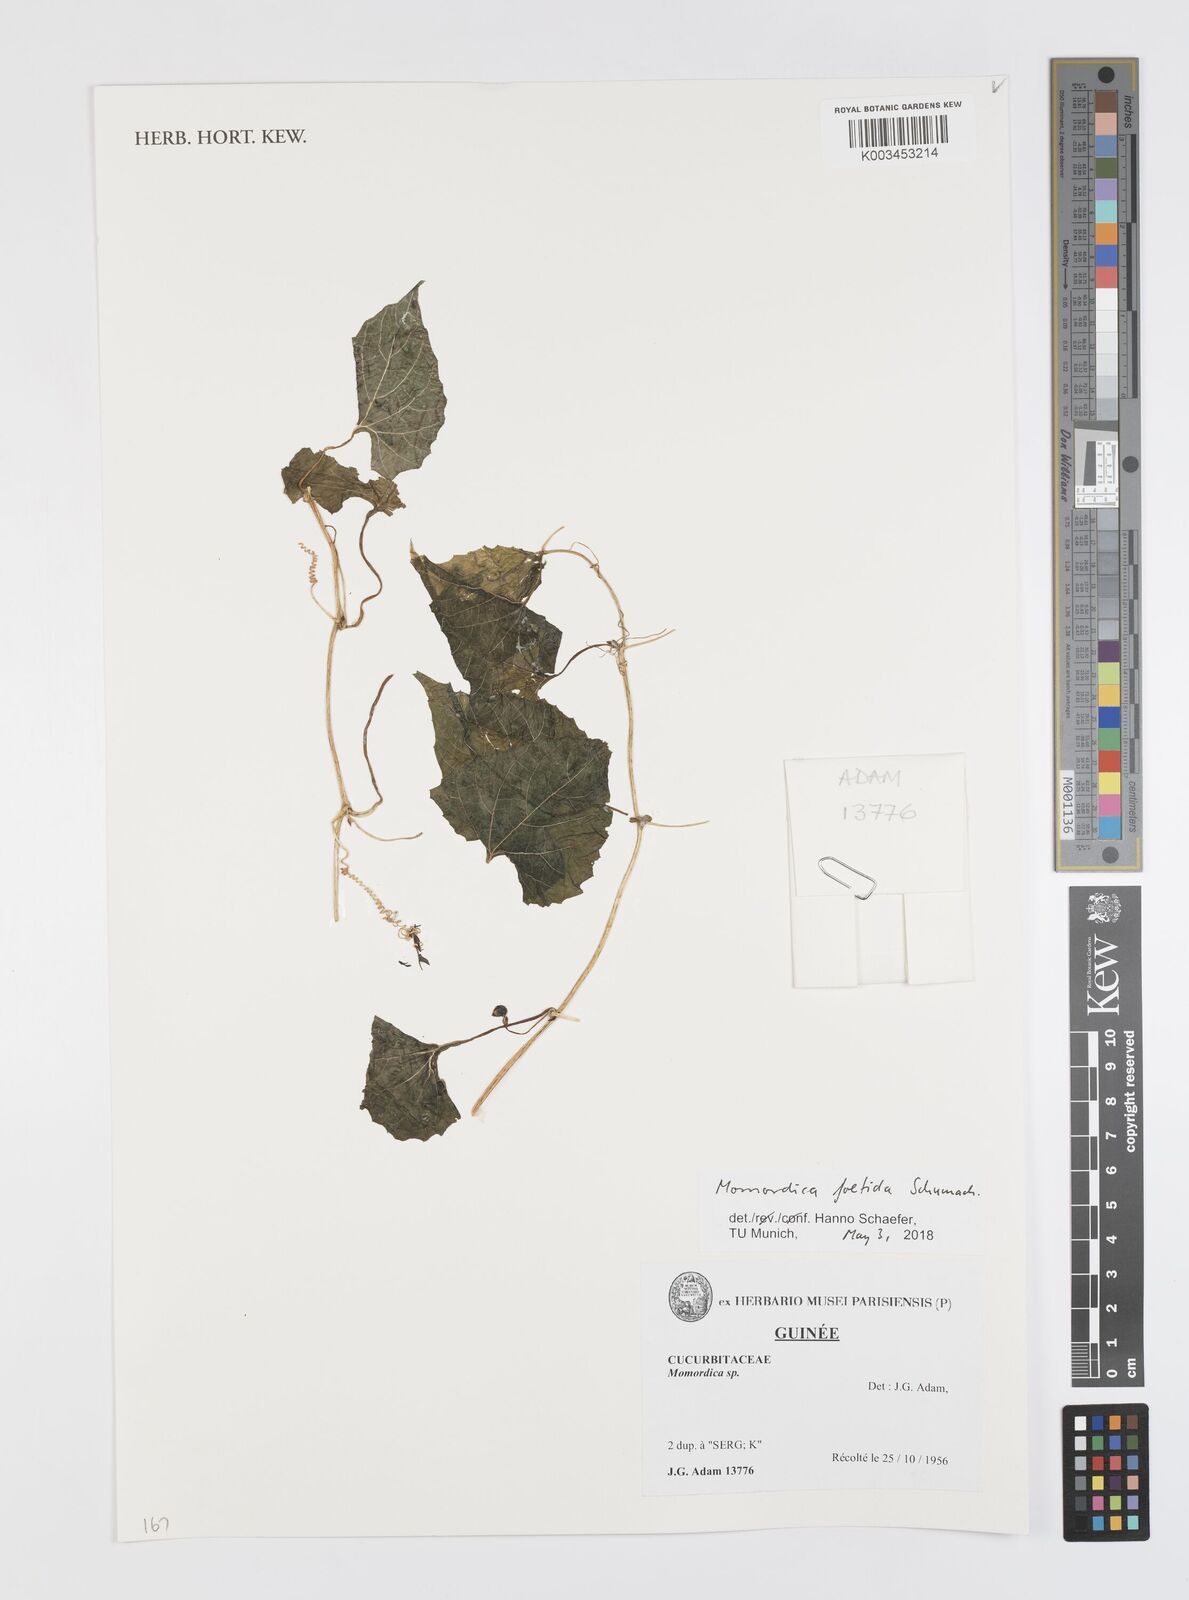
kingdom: Plantae
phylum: Tracheophyta
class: Magnoliopsida
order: Cucurbitales
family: Cucurbitaceae
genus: Momordica
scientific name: Momordica foetida
